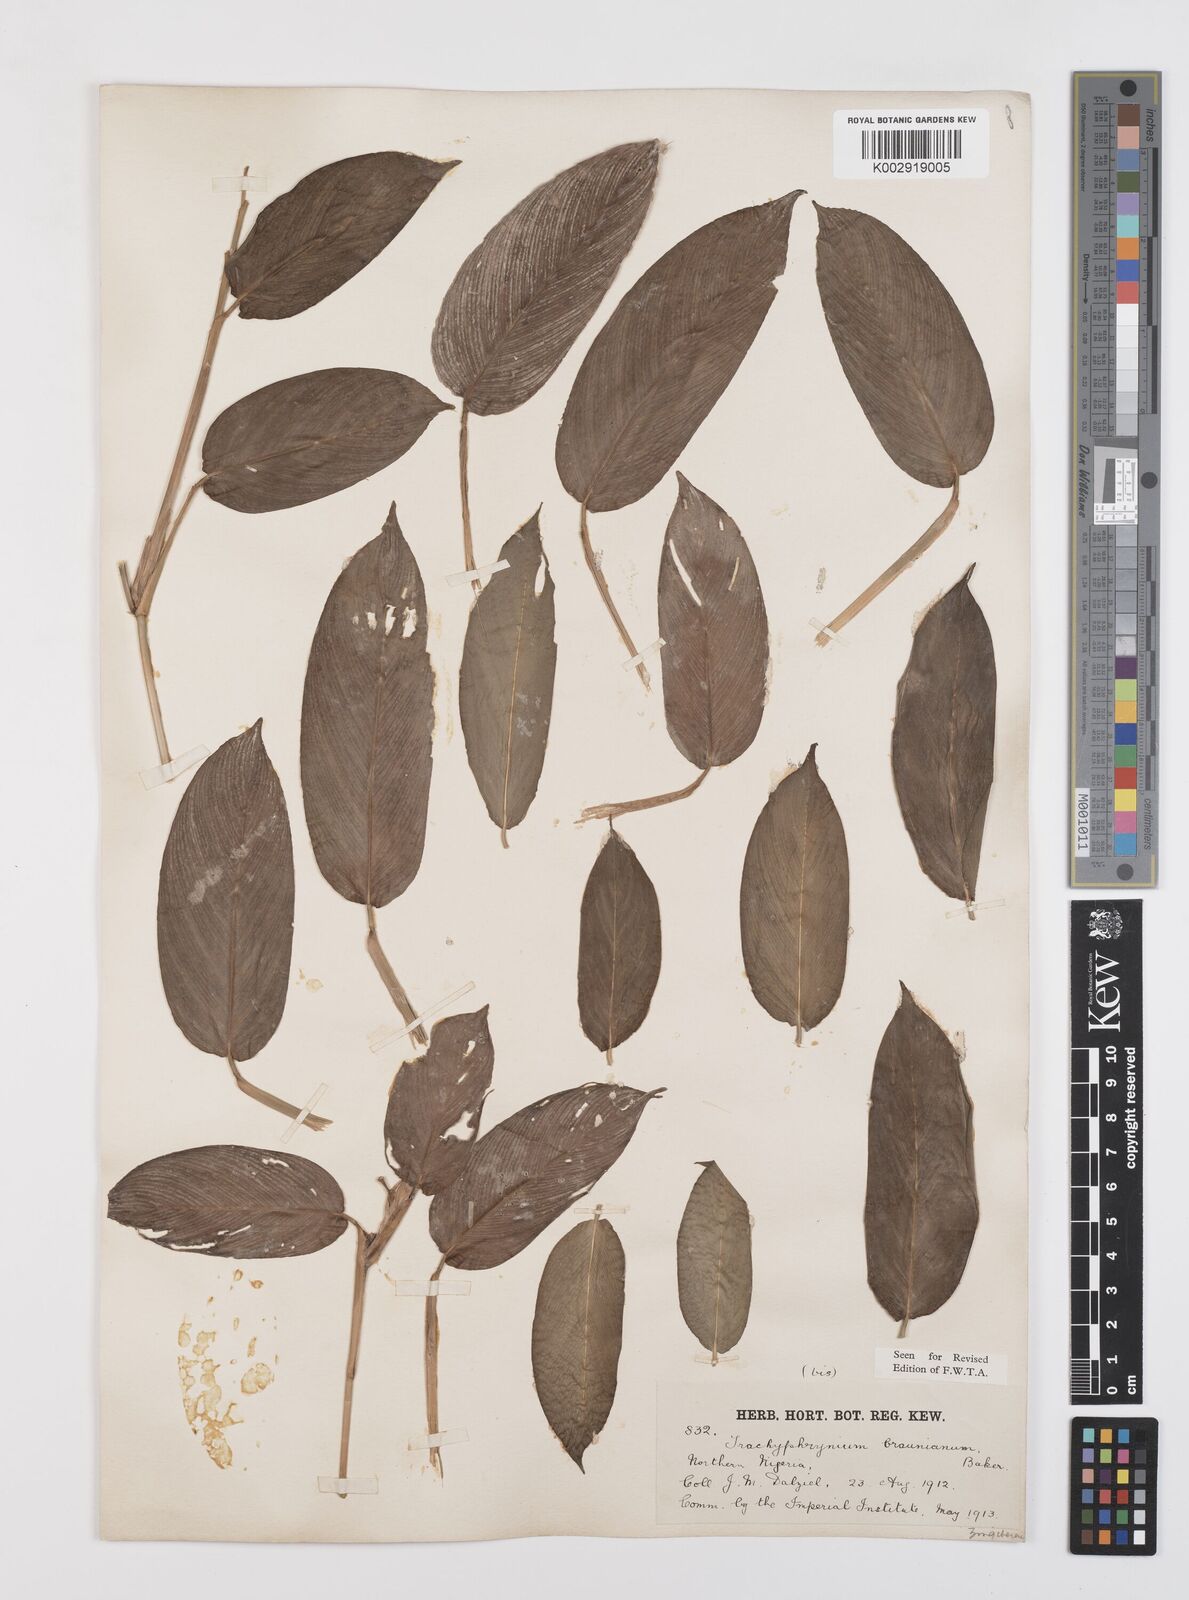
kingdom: Plantae
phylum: Tracheophyta
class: Liliopsida
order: Zingiberales
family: Marantaceae
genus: Trachyphrynium
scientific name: Trachyphrynium braunianum
